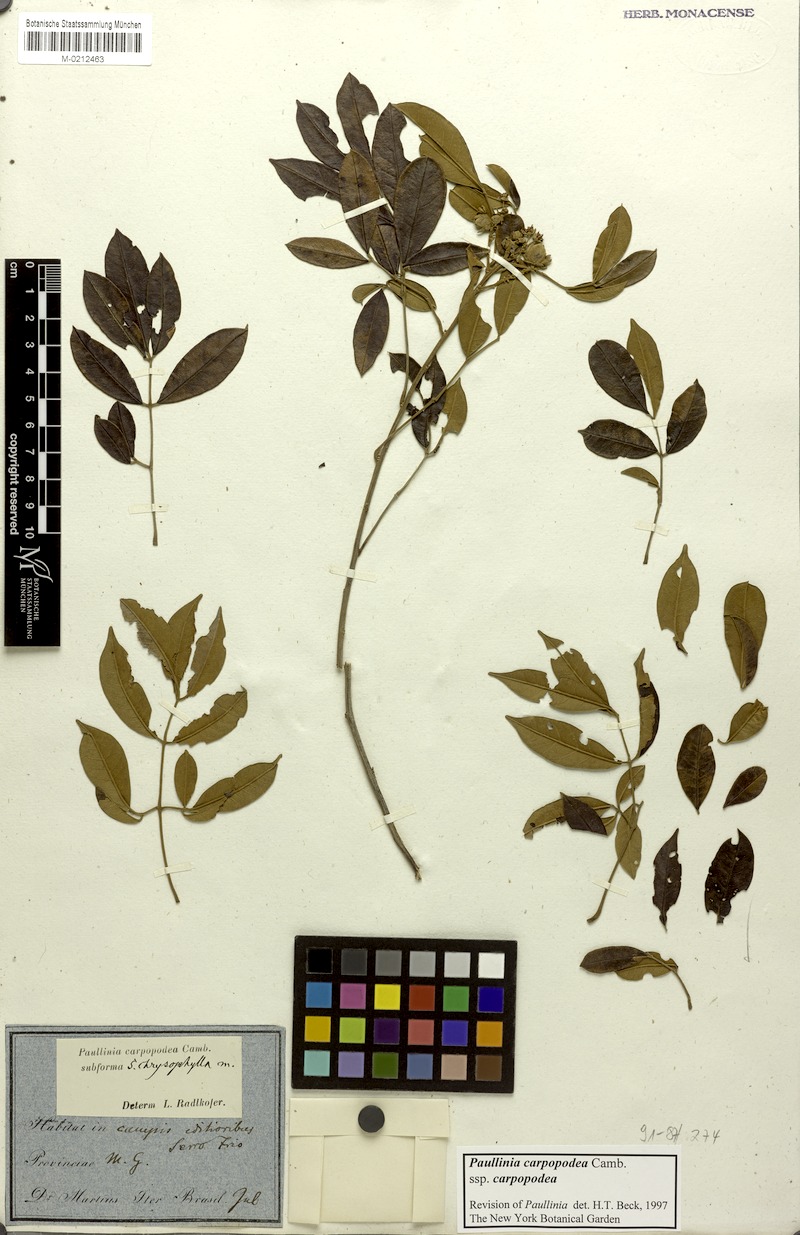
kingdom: Plantae
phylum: Tracheophyta
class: Magnoliopsida
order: Sapindales
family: Sapindaceae
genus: Paullinia
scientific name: Paullinia carpopoda
